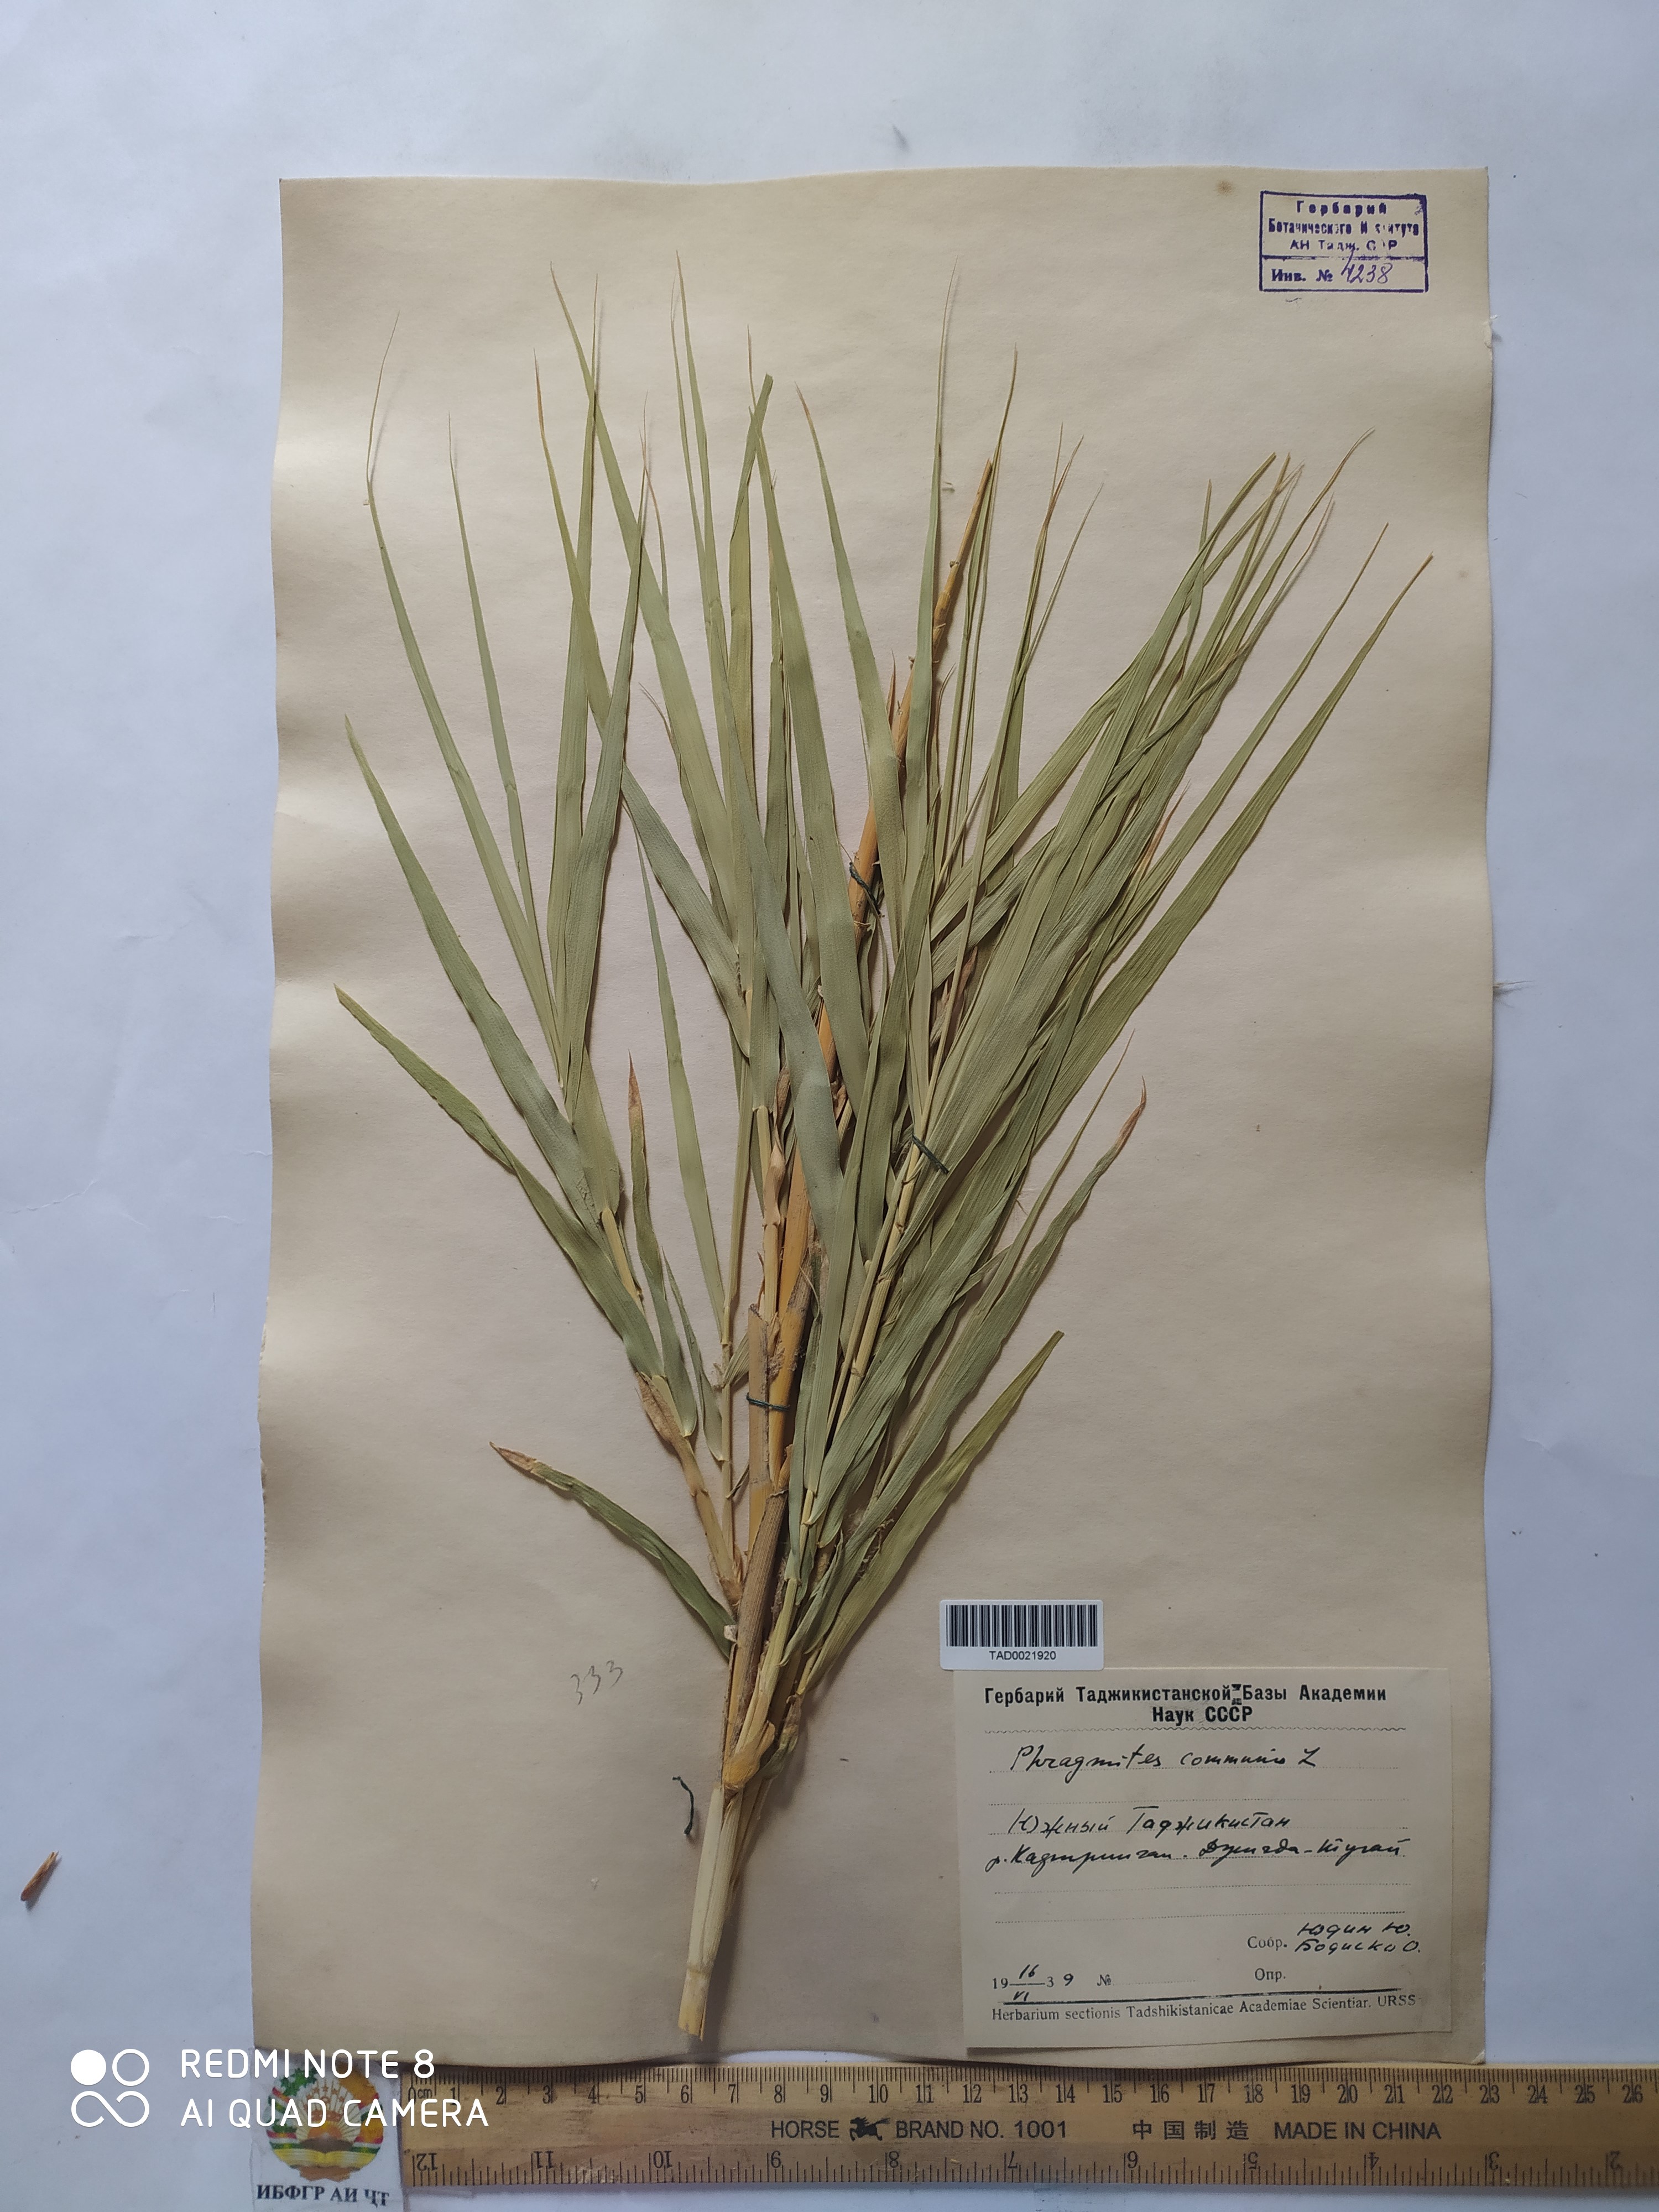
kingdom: Plantae
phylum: Tracheophyta
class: Liliopsida
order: Poales
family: Poaceae
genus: Phragmites
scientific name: Phragmites australis
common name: Common reed
